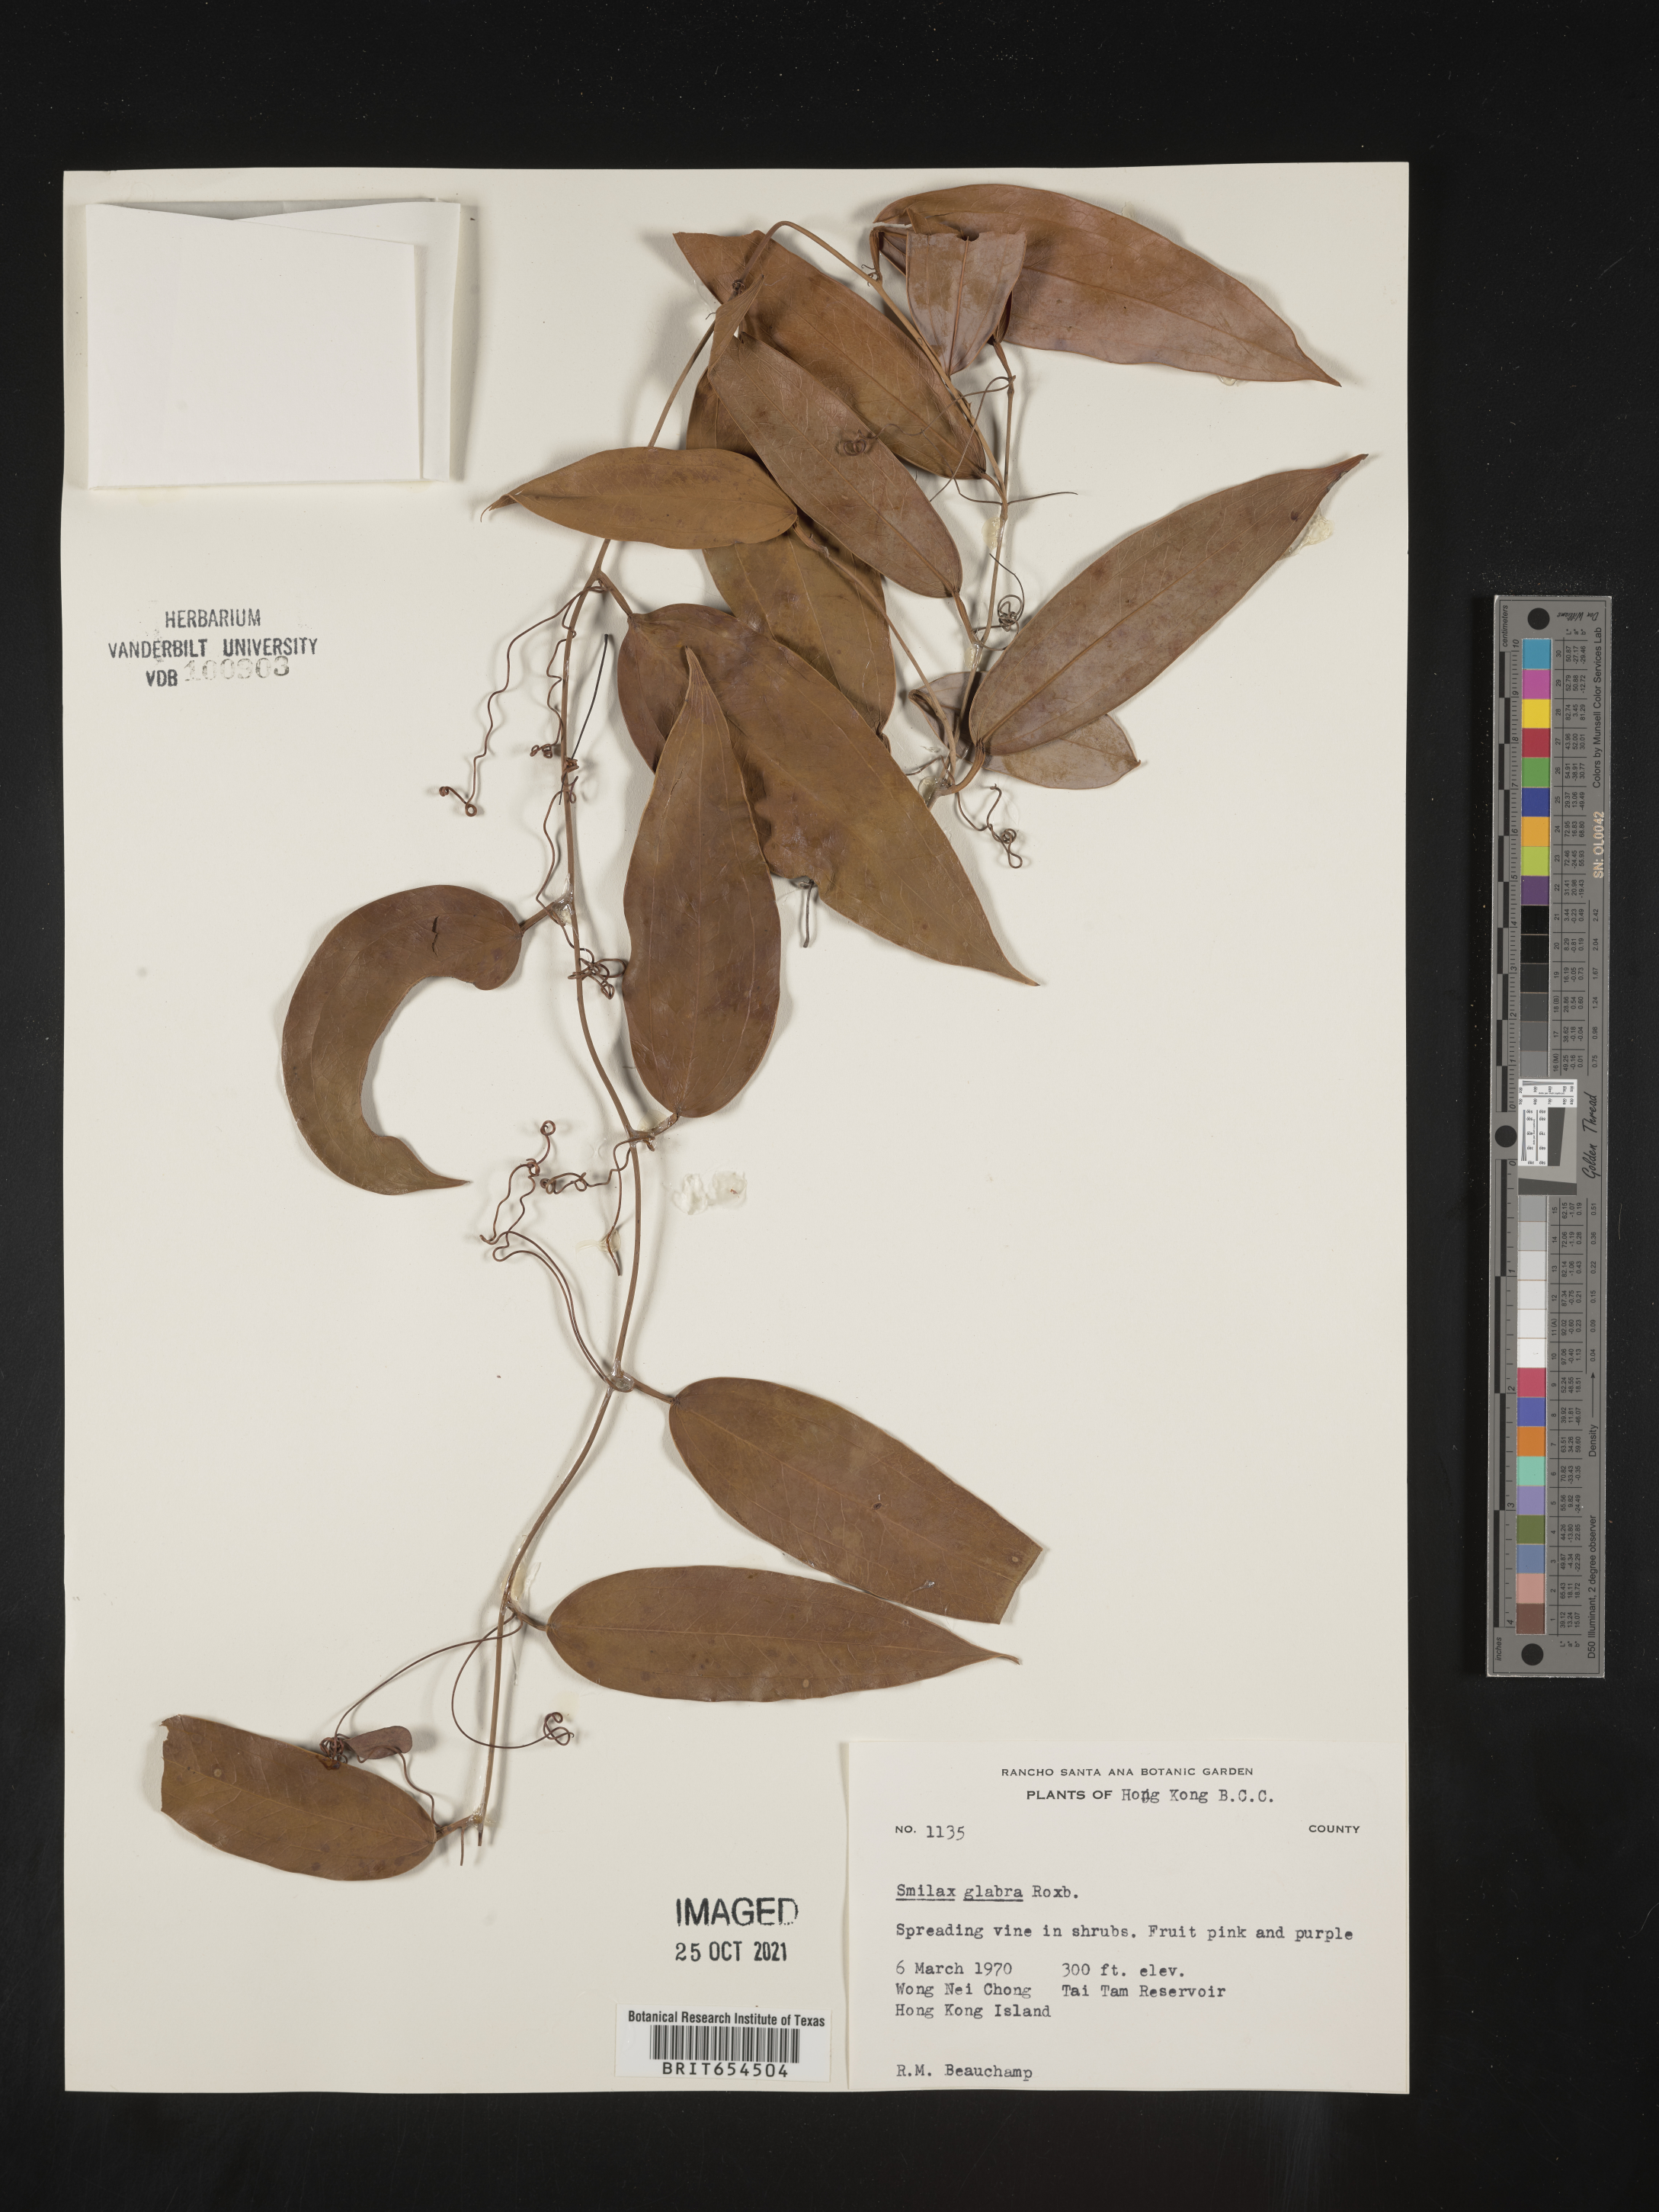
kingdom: Plantae
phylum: Tracheophyta
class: Liliopsida
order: Liliales
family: Smilacaceae
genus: Smilax
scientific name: Smilax
